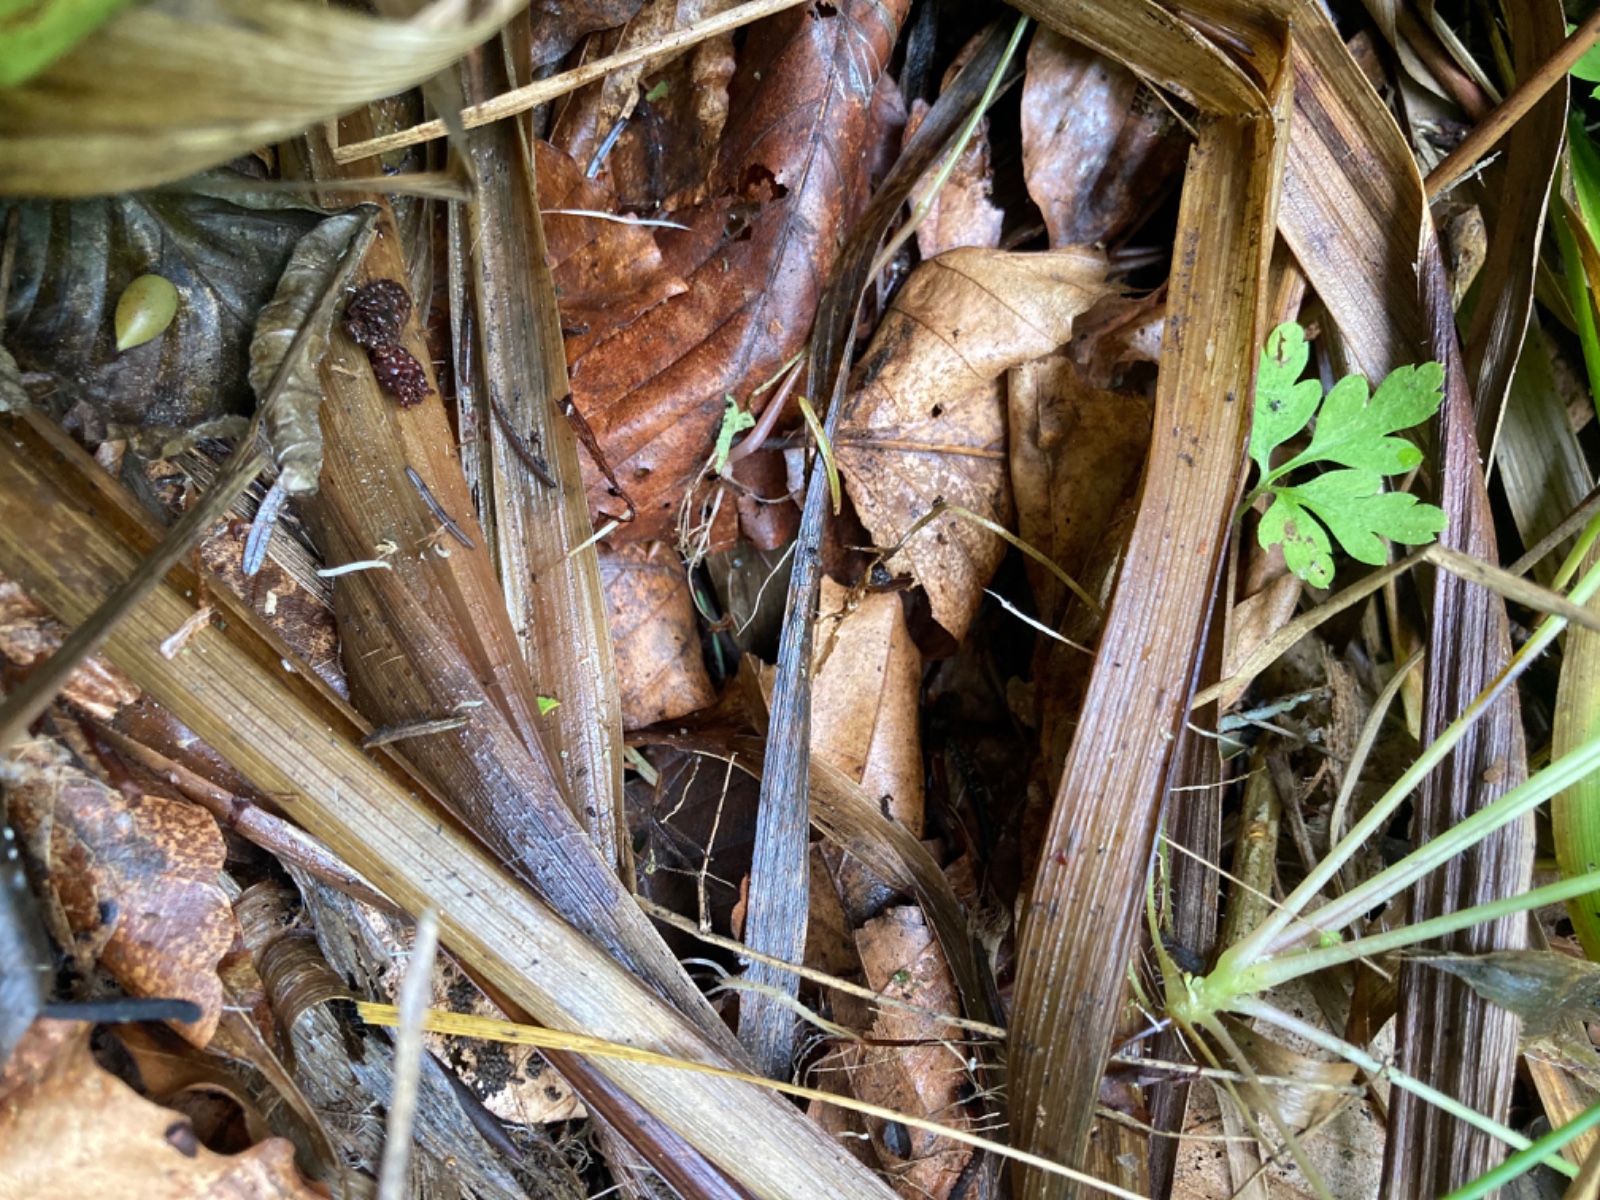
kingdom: Fungi
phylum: Basidiomycota
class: Agaricomycetes
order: Agaricales
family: Pterulaceae
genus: Pterulicium
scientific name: Pterulicium caricis-pendulae
